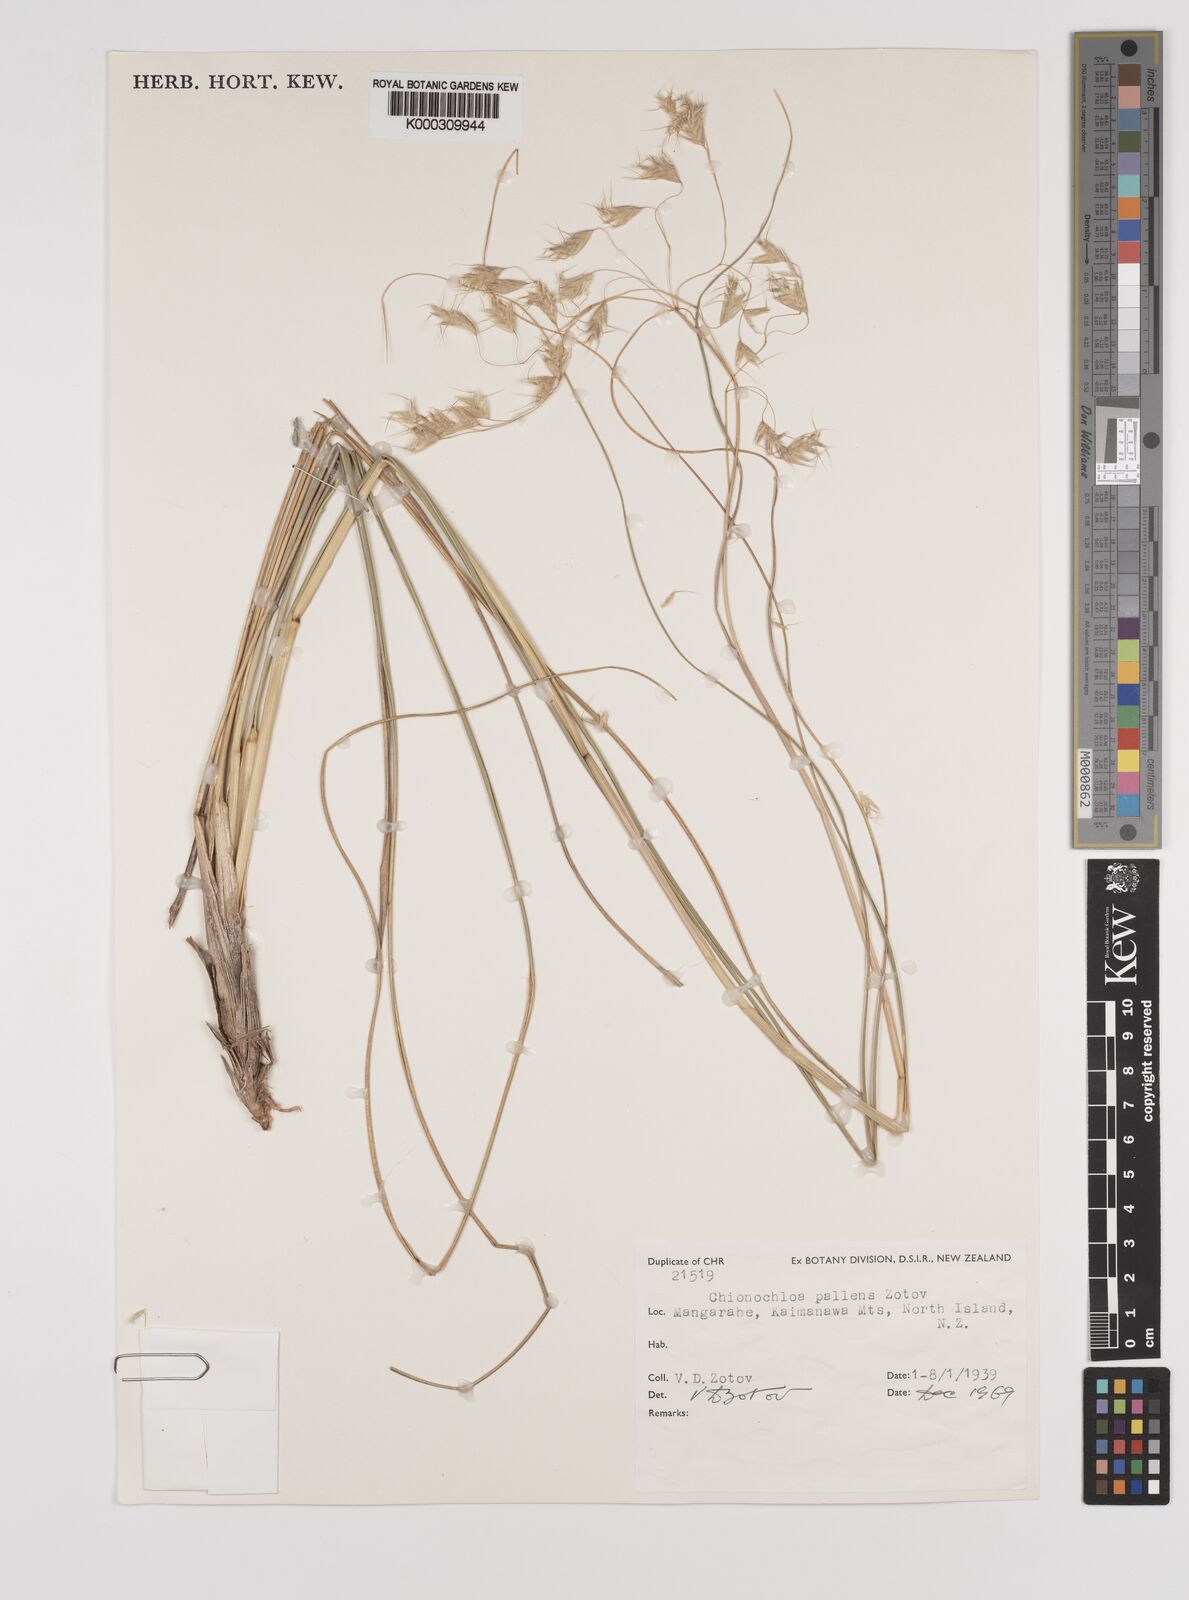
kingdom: Plantae
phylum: Tracheophyta
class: Liliopsida
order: Poales
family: Poaceae
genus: Chionochloa
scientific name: Chionochloa pallens
